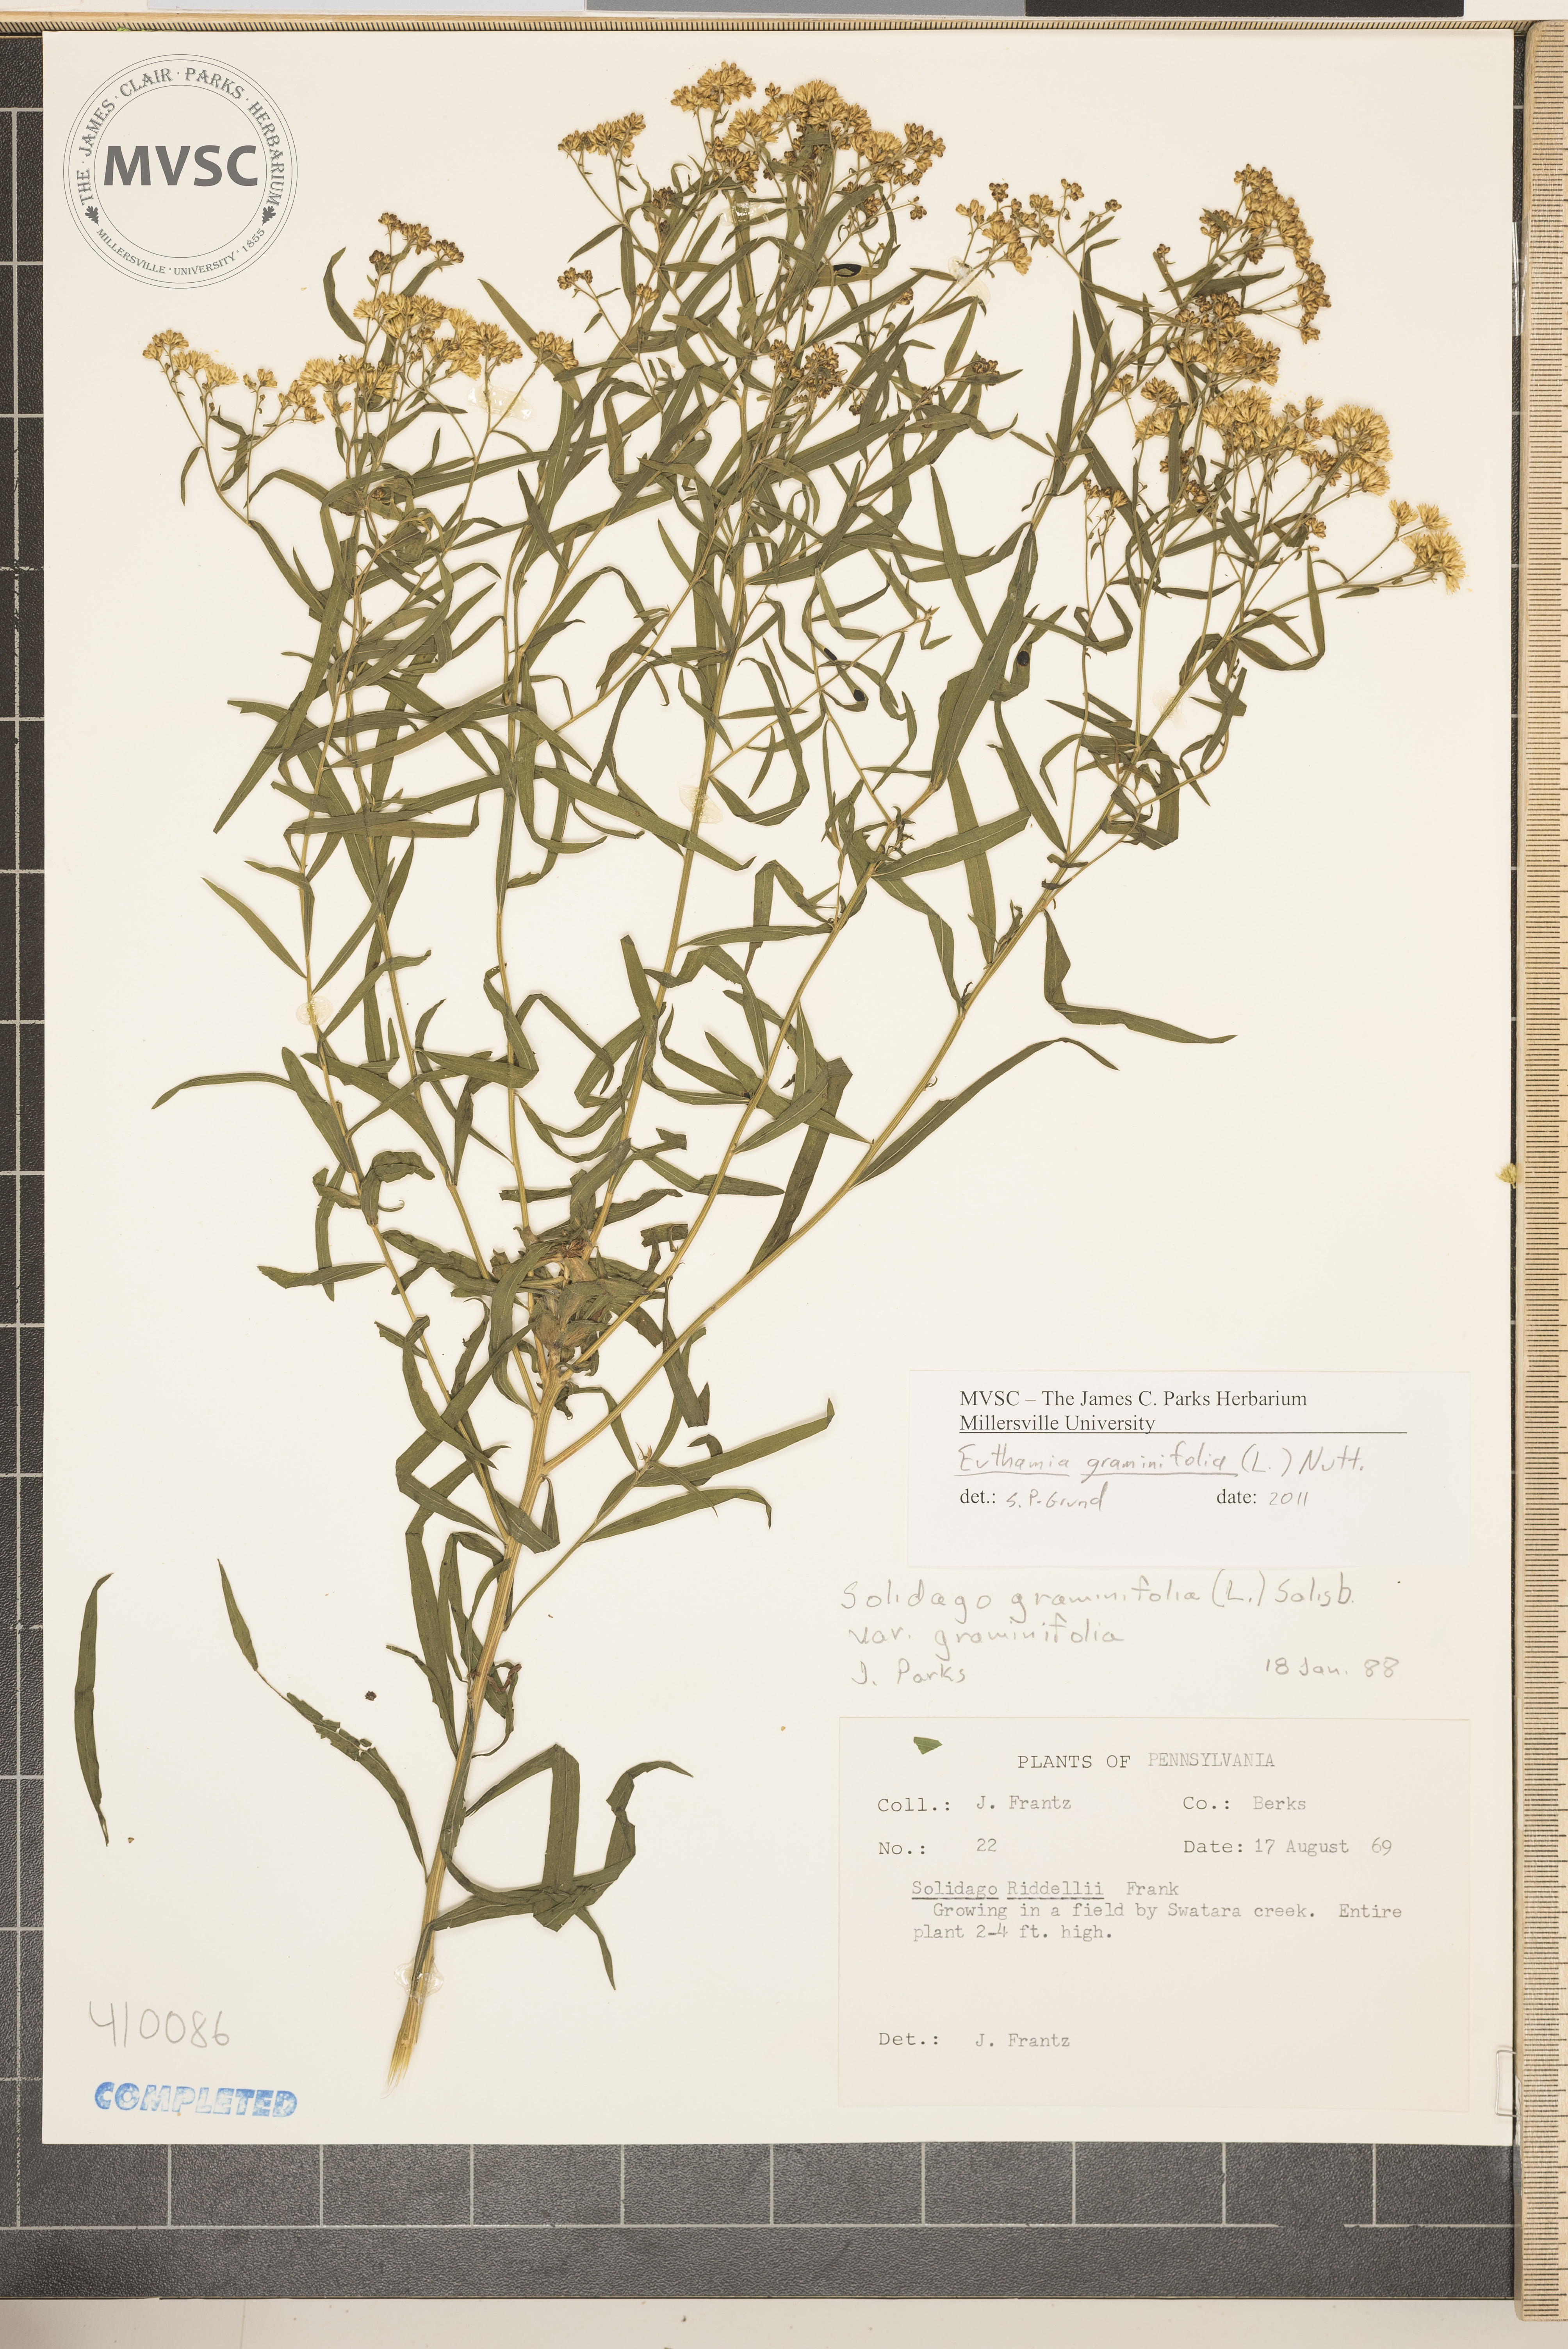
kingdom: Plantae
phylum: Tracheophyta
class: Magnoliopsida
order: Asterales
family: Asteraceae
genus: Euthamia
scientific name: Euthamia graminifolia
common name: Common goldentop
